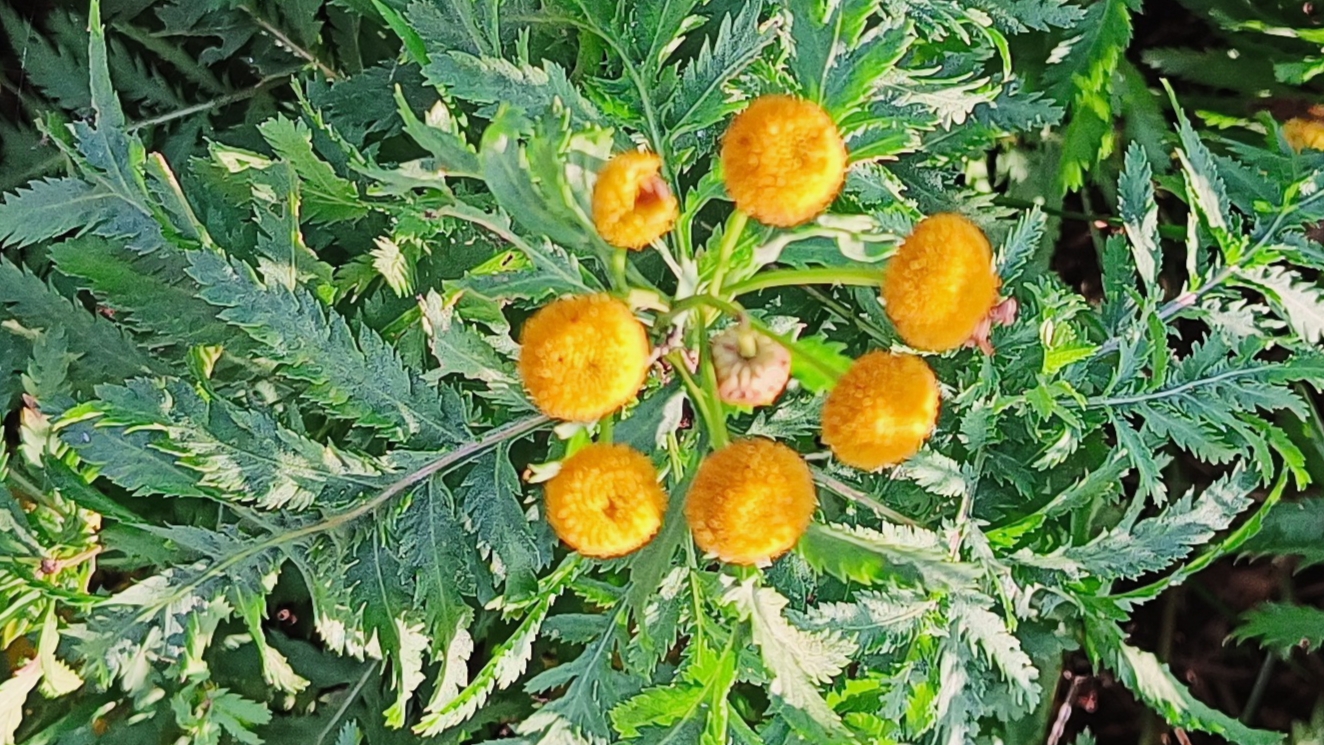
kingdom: Plantae
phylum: Tracheophyta
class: Magnoliopsida
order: Asterales
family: Asteraceae
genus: Tanacetum
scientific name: Tanacetum vulgare
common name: Rejnfan
